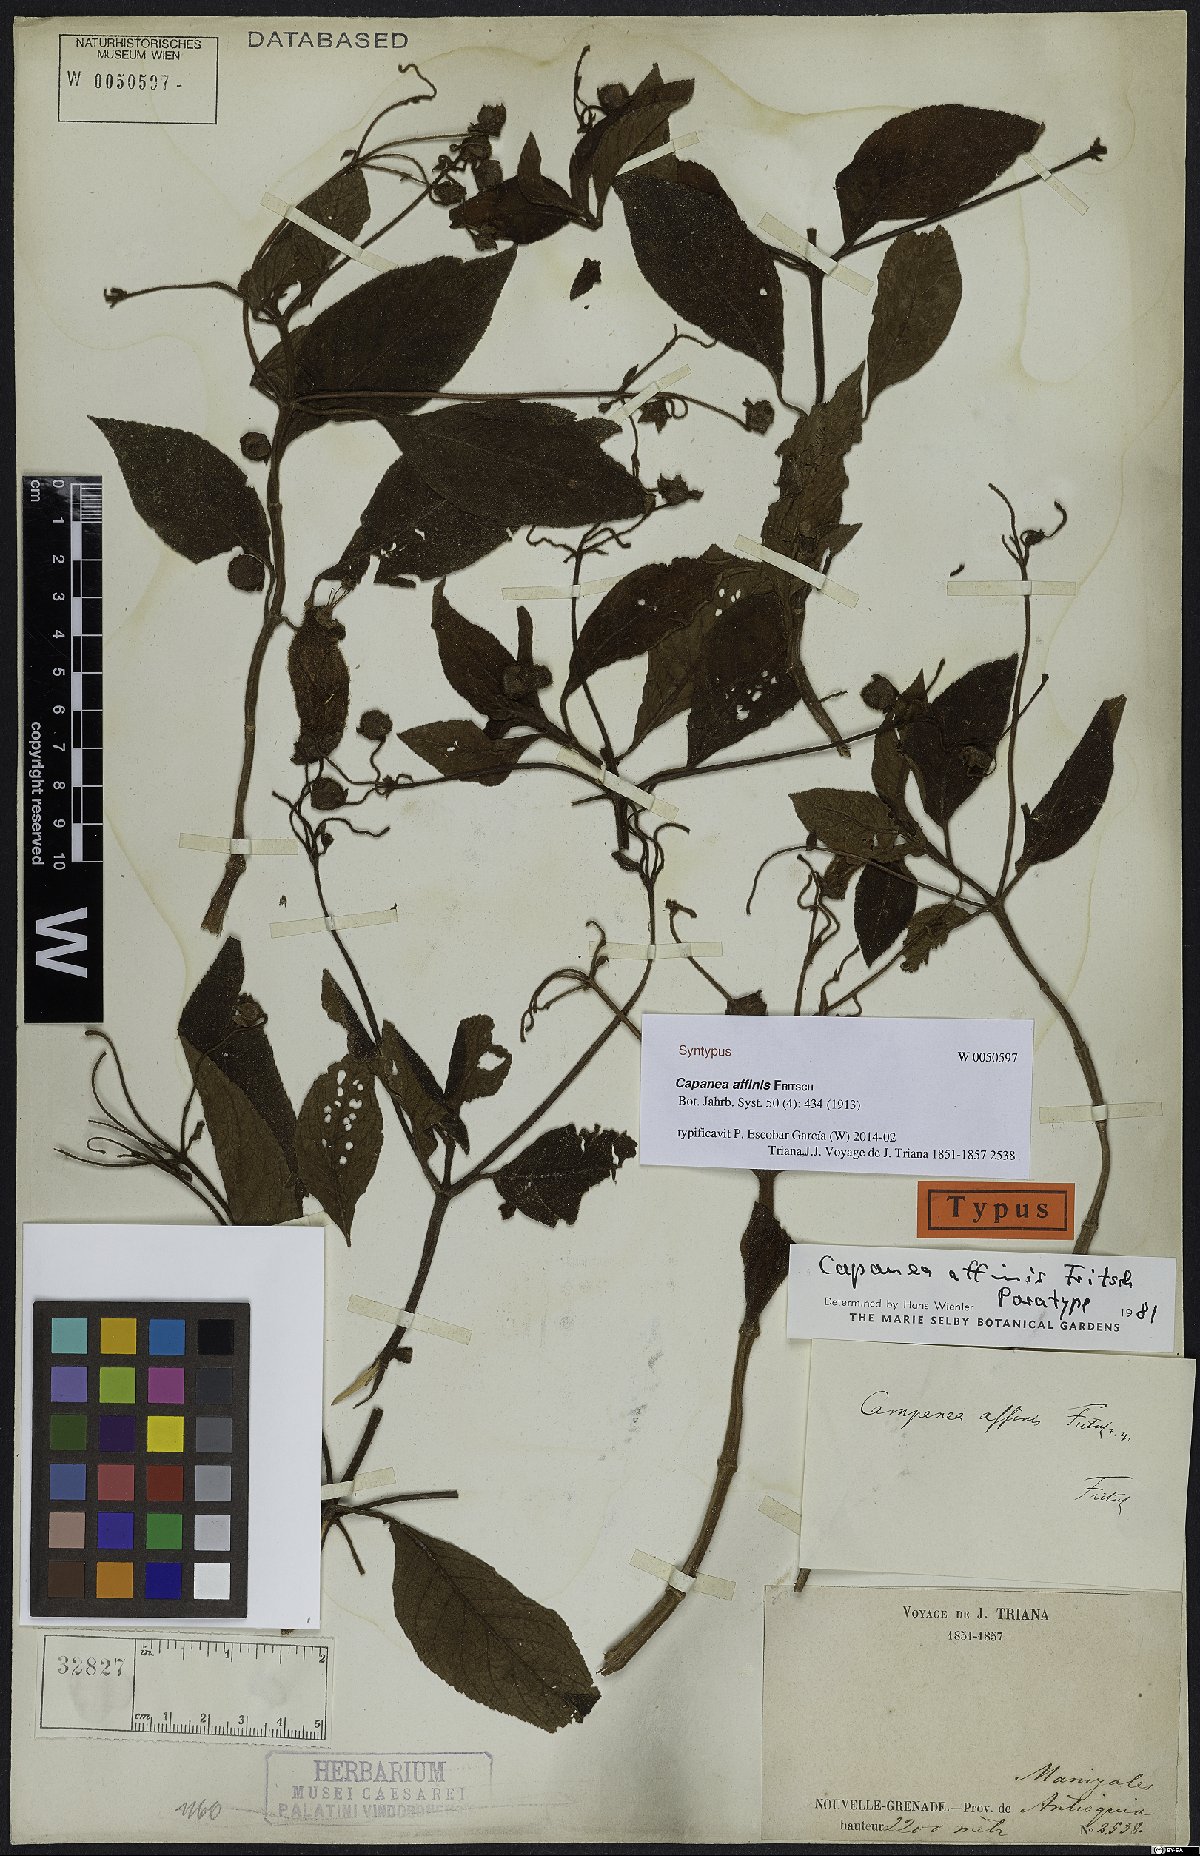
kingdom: Plantae
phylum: Tracheophyta
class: Magnoliopsida
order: Lamiales
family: Gesneriaceae
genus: Kohleria
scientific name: Kohleria affinis
